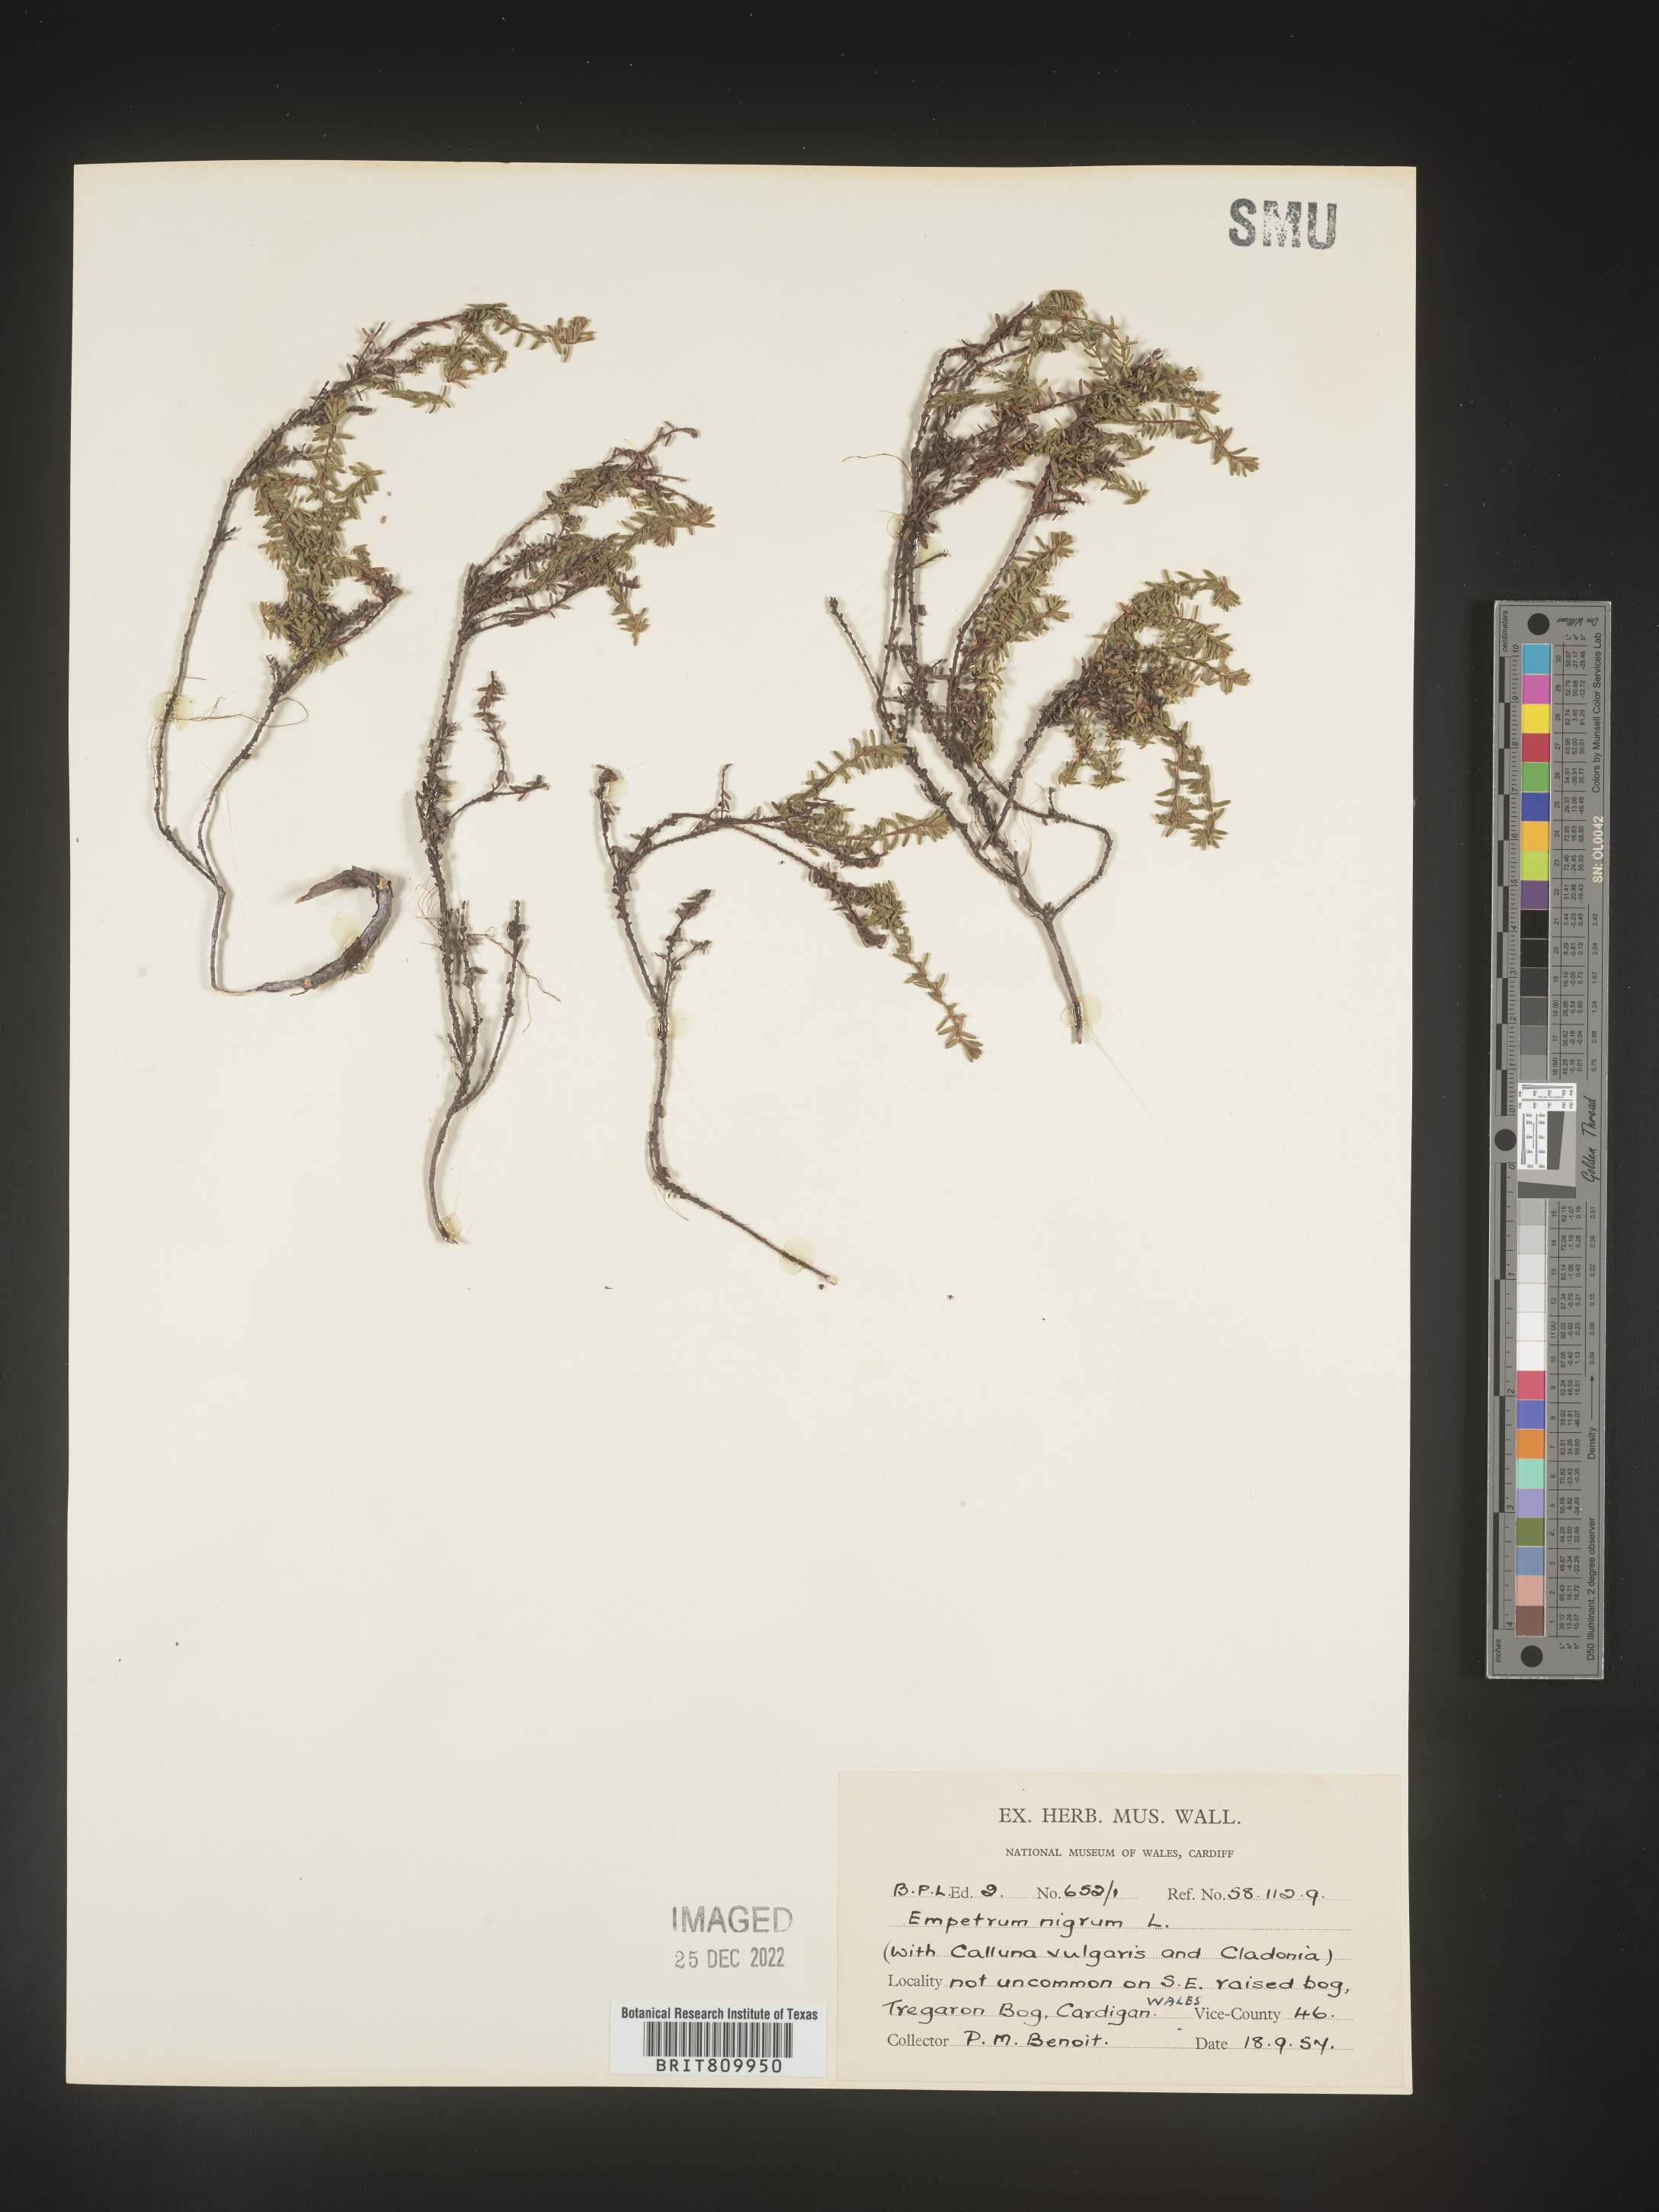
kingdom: Plantae
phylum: Tracheophyta
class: Magnoliopsida
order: Ericales
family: Ericaceae
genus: Empetrum
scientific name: Empetrum
